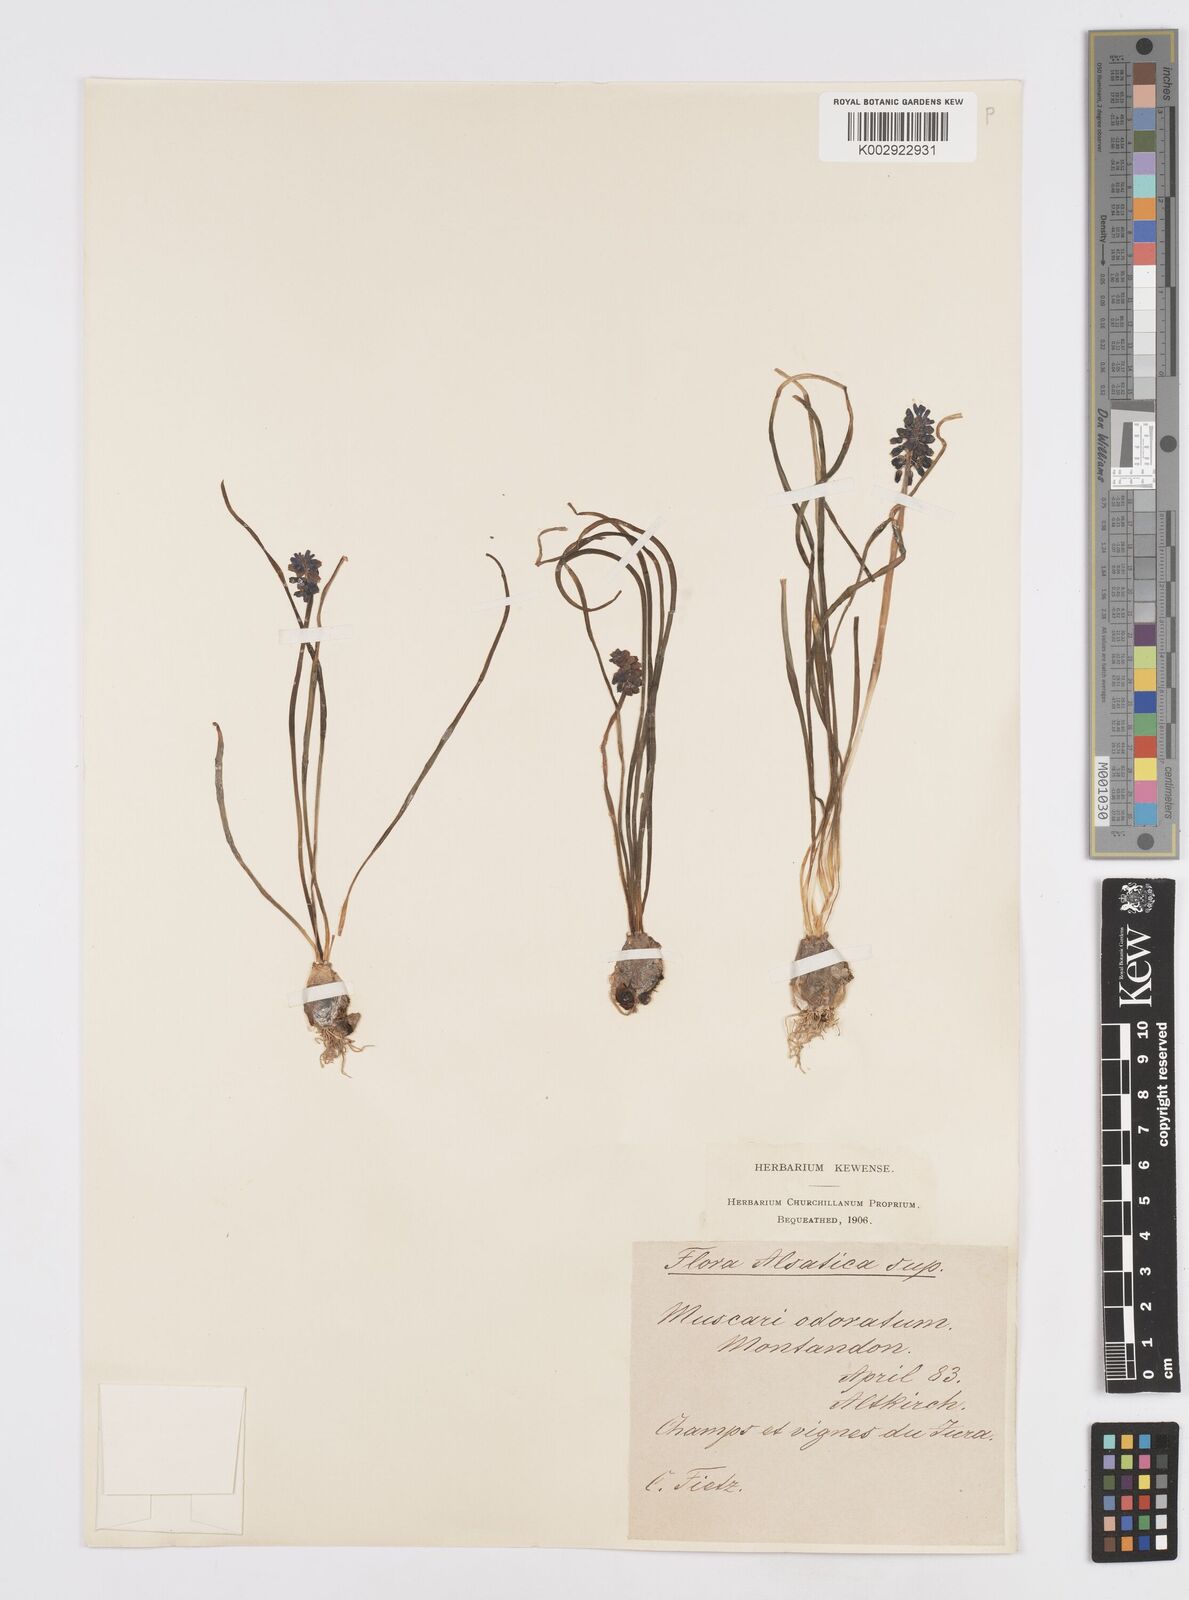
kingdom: Plantae
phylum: Tracheophyta
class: Liliopsida
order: Asparagales
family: Asparagaceae
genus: Muscarimia
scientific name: Muscarimia muscari
